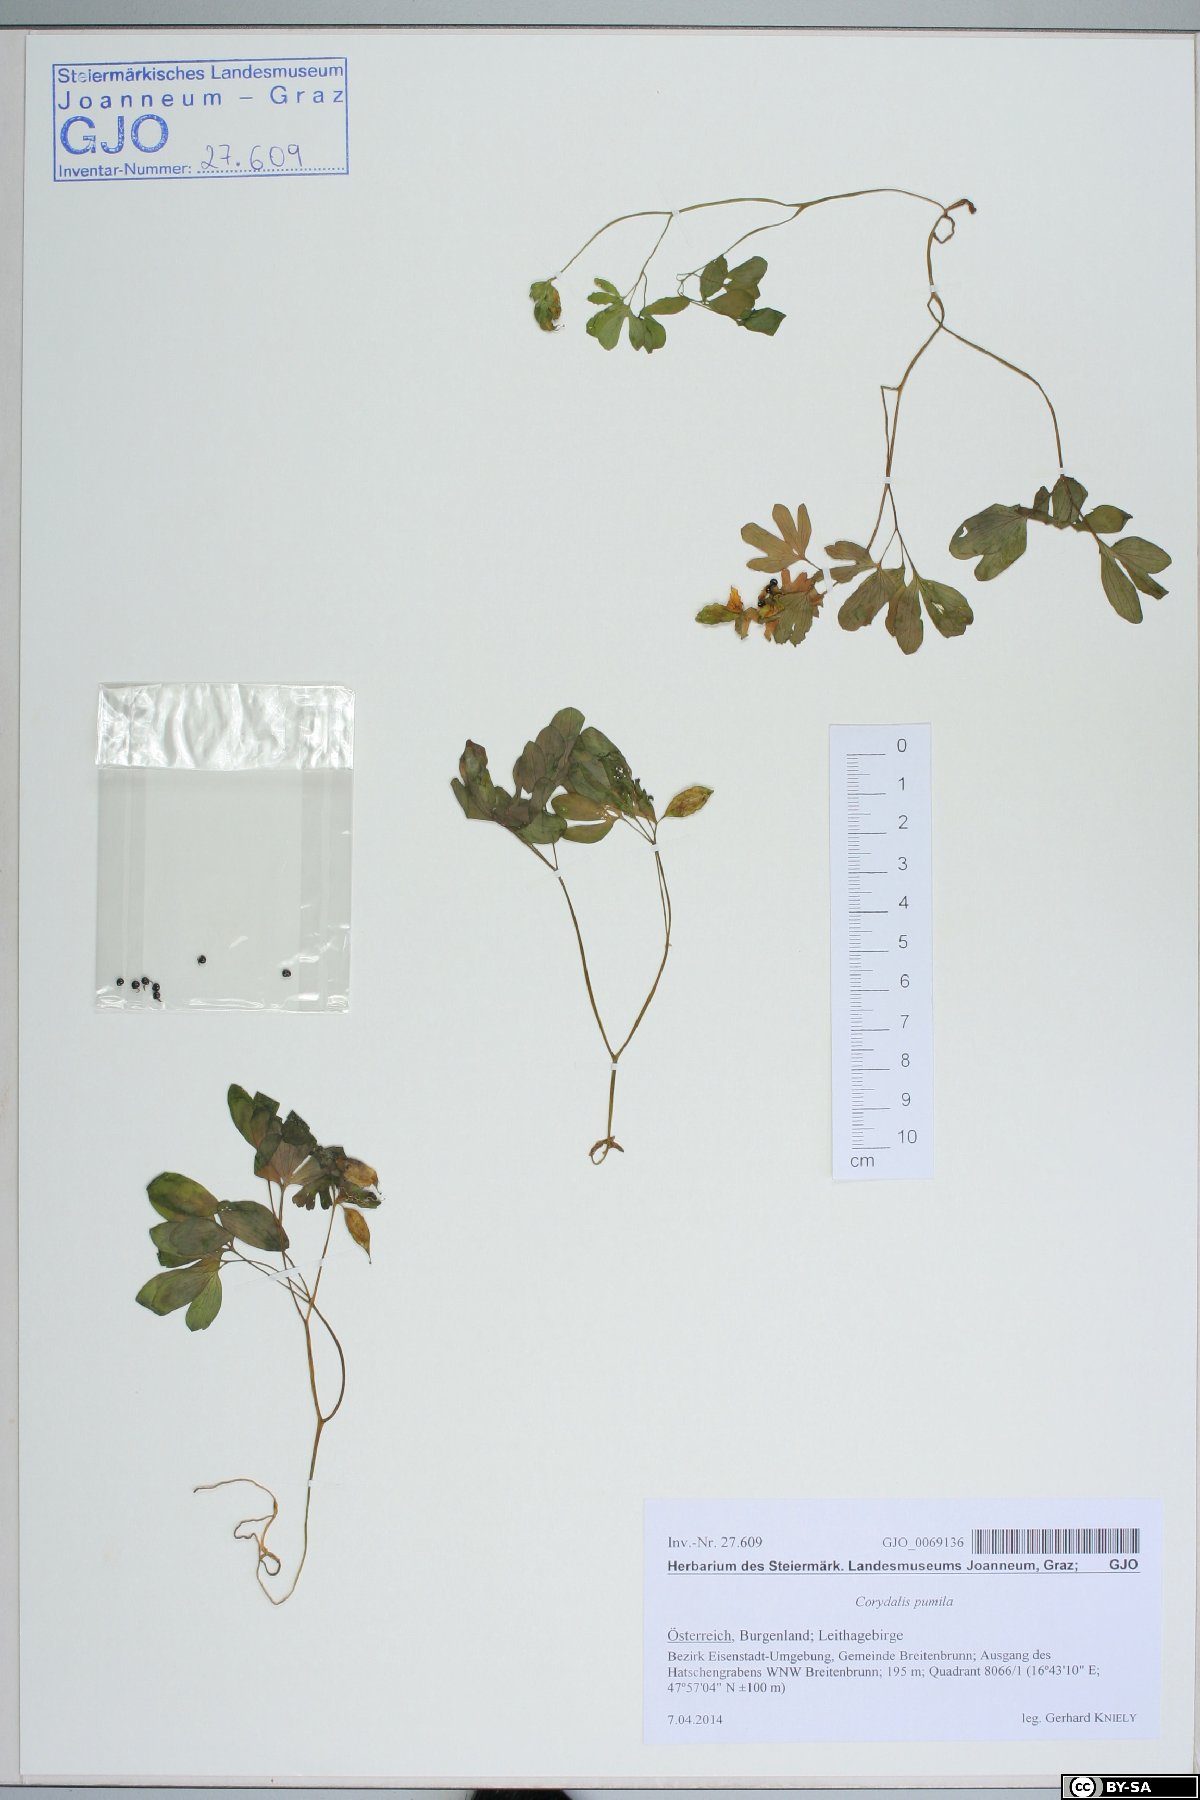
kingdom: Plantae
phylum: Tracheophyta
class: Magnoliopsida
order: Ranunculales
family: Papaveraceae
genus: Corydalis
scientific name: Corydalis pumila
